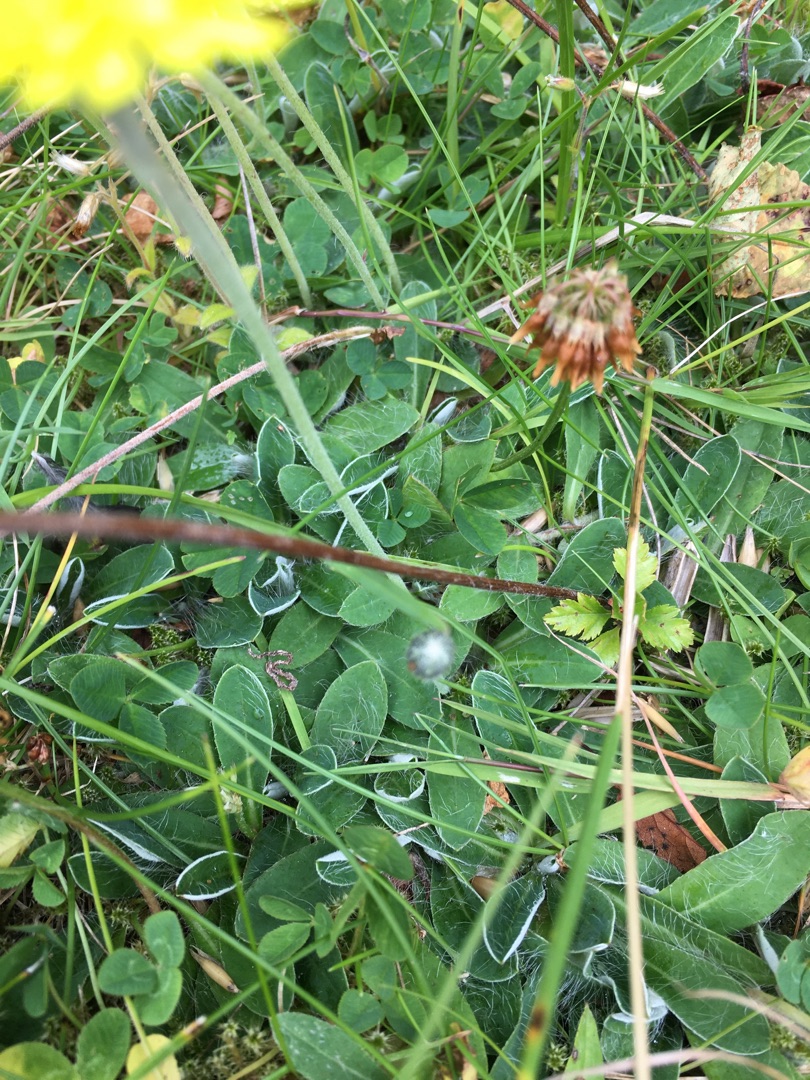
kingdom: Plantae
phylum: Tracheophyta
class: Magnoliopsida
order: Asterales
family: Asteraceae
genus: Pilosella
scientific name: Pilosella officinarum
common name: Håret høgeurt
